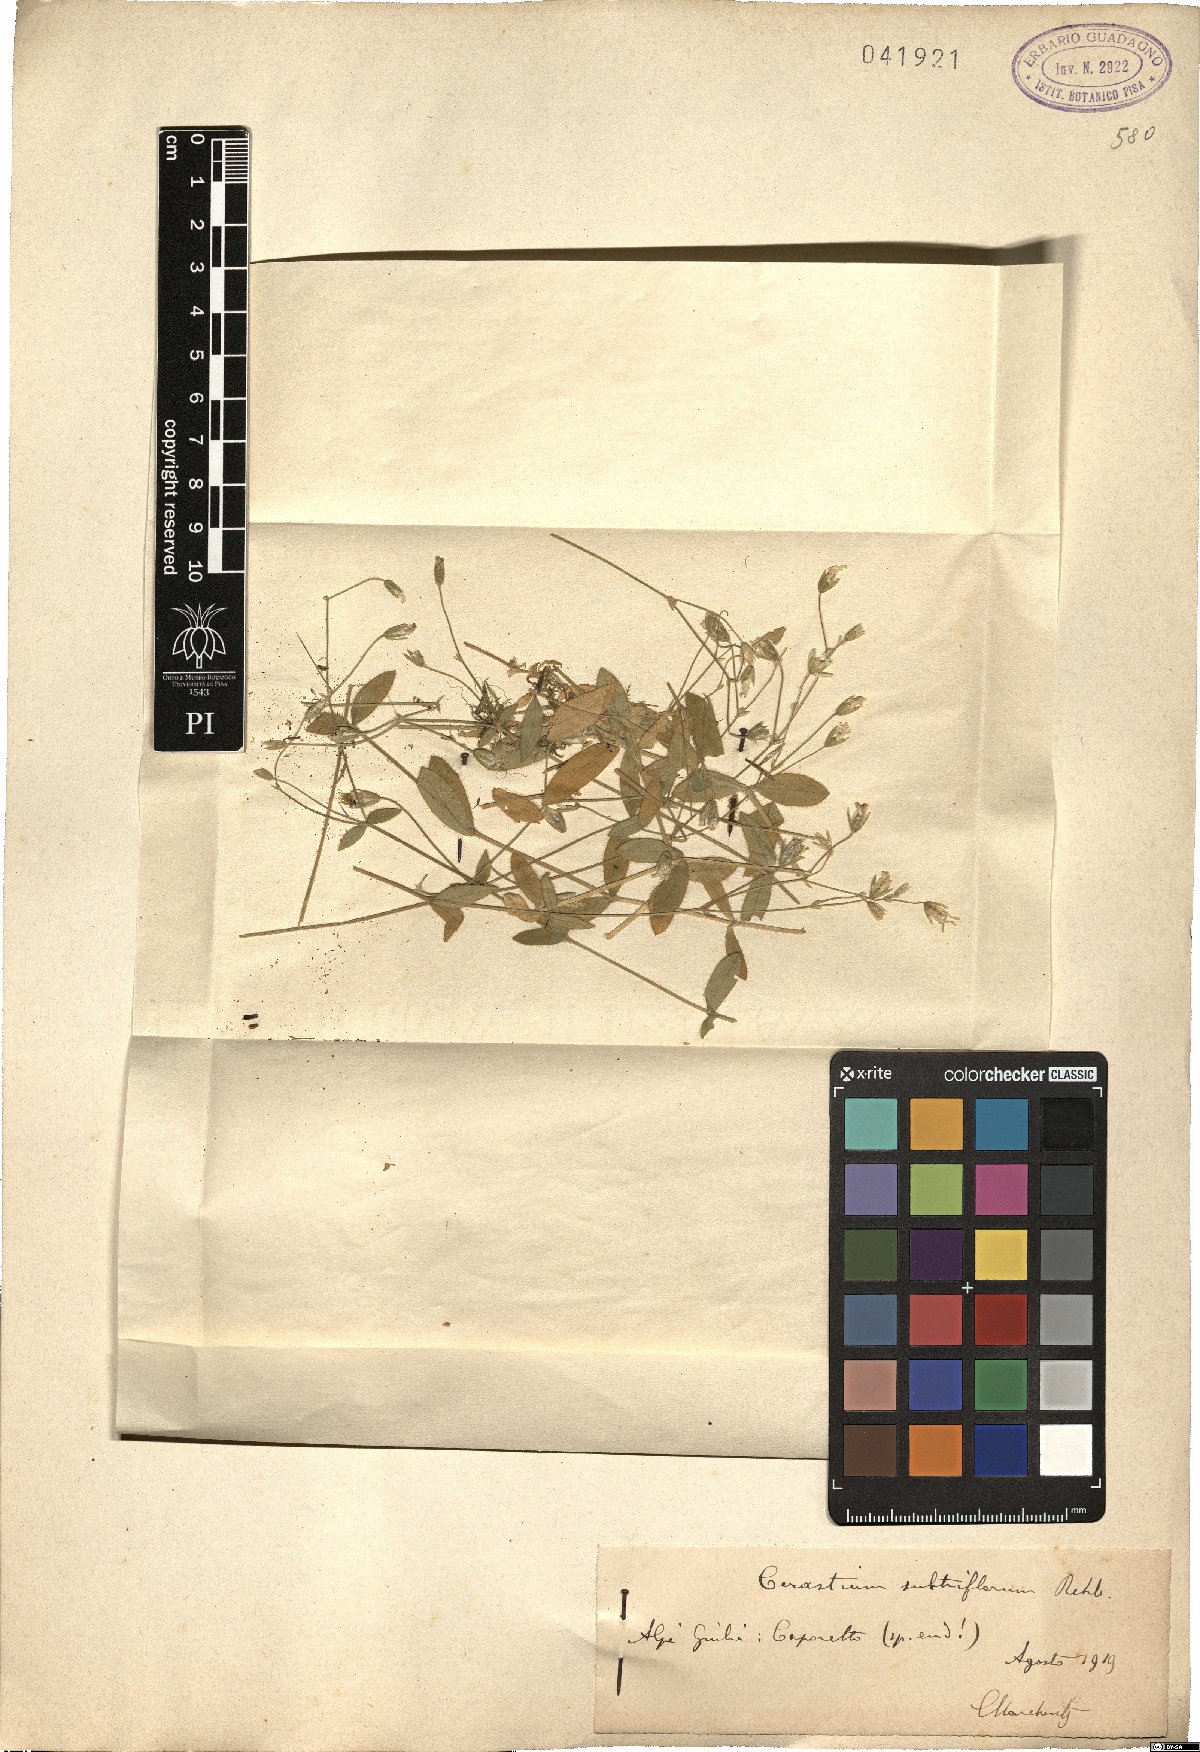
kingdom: Plantae
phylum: Tracheophyta
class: Magnoliopsida
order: Caryophyllales
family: Caryophyllaceae
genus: Cerastium
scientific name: Cerastium subtriflorum
